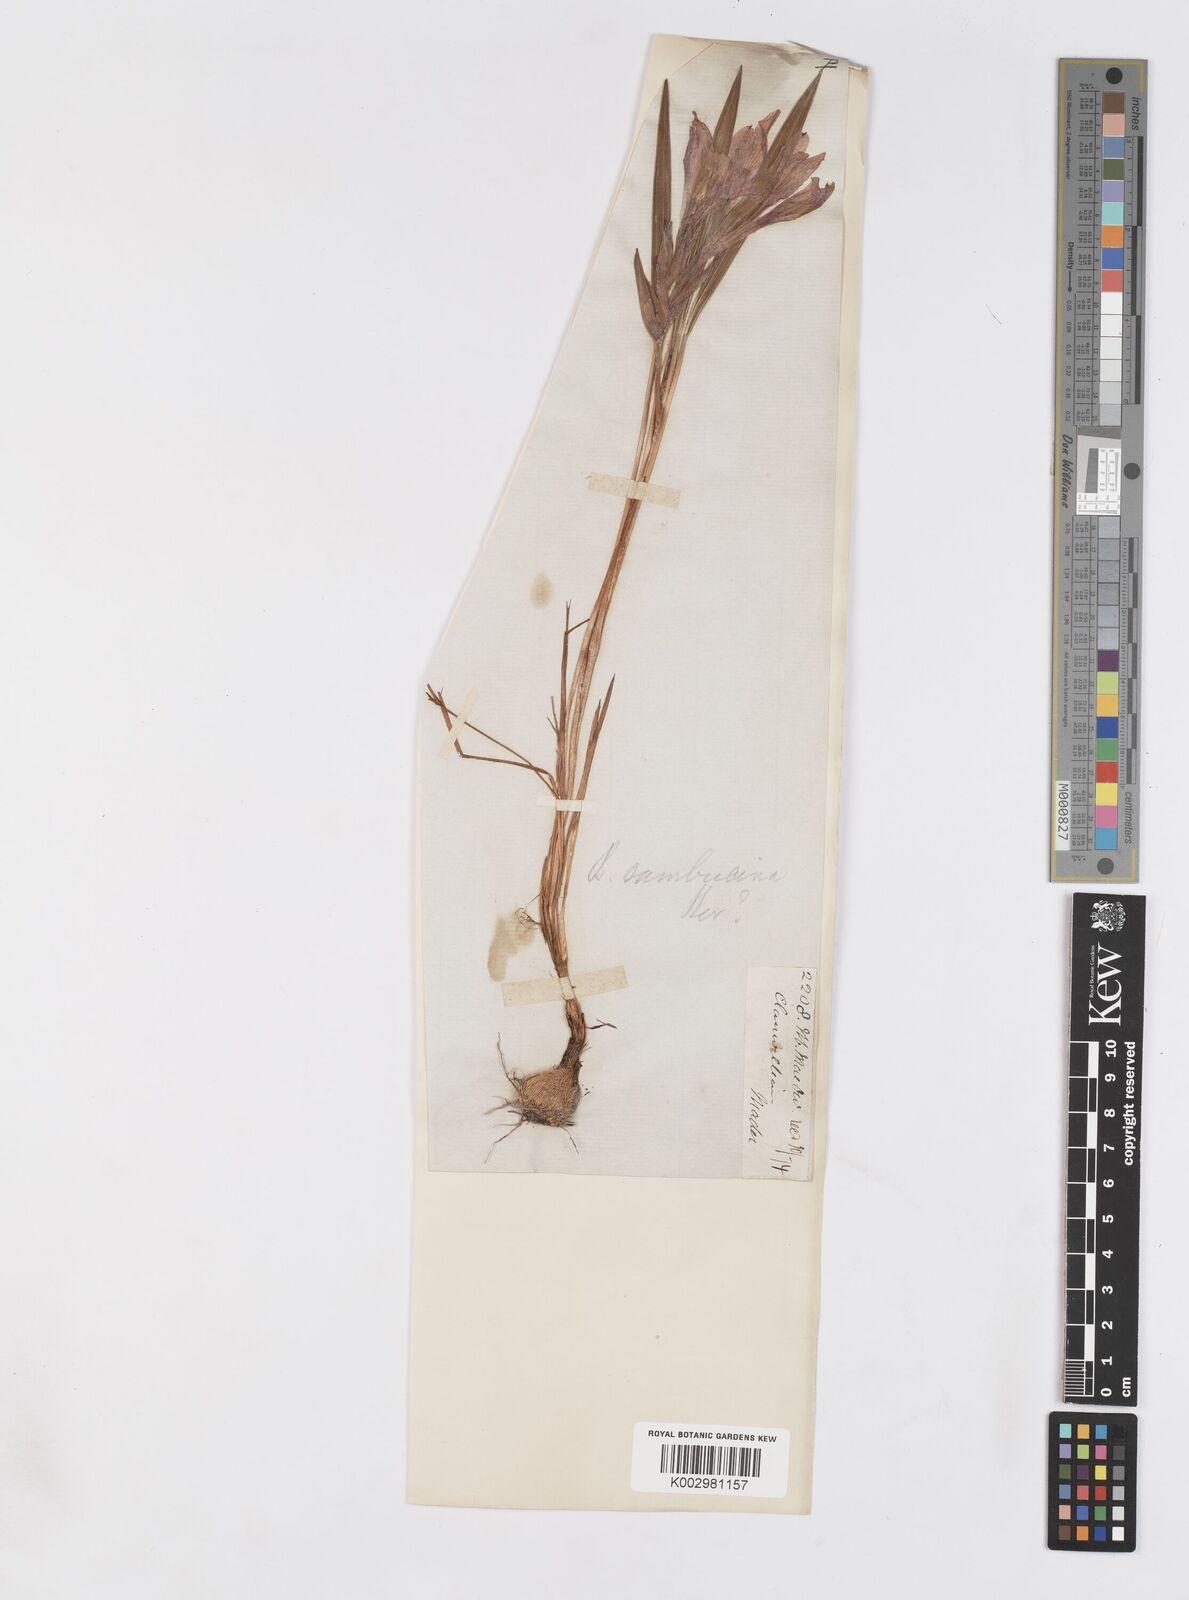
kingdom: Plantae
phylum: Tracheophyta
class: Liliopsida
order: Asparagales
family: Iridaceae
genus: Babiana
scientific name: Babiana
